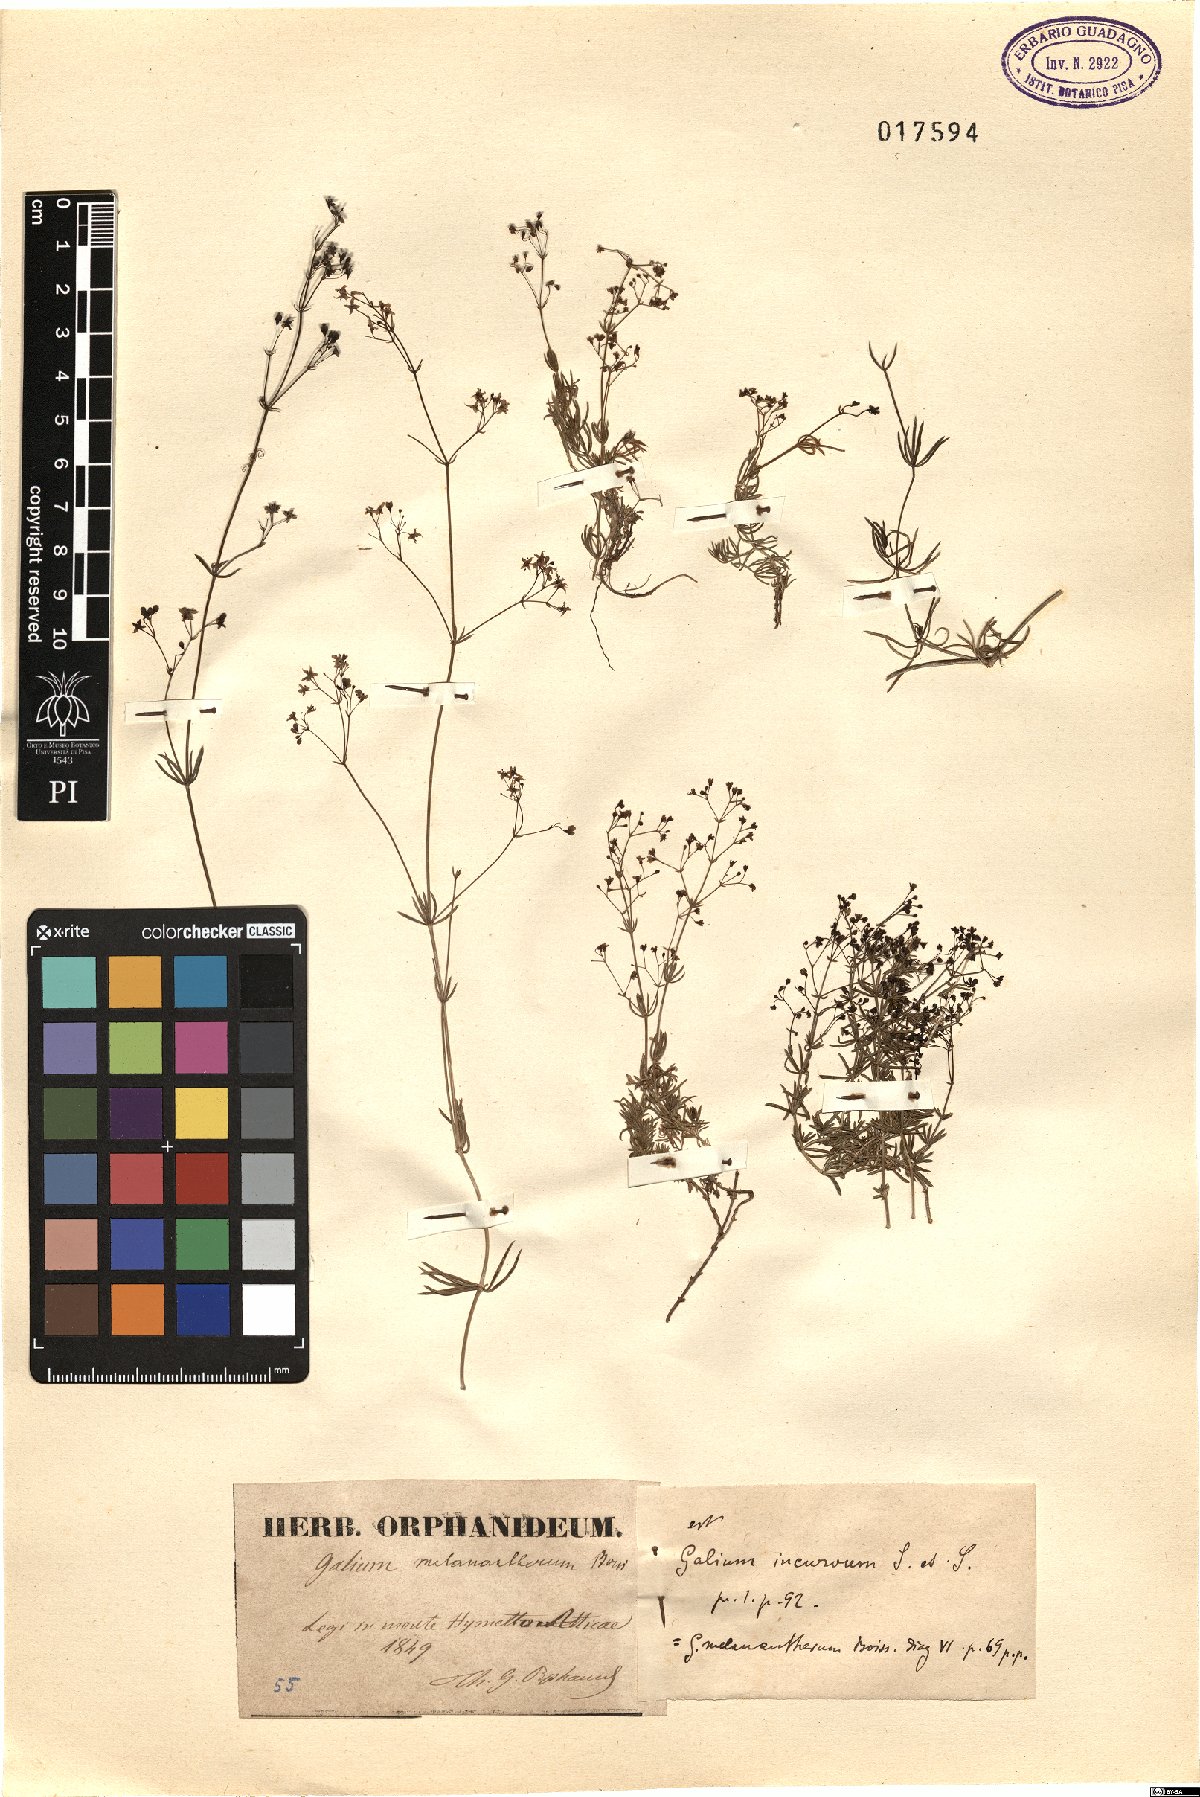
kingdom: Plantae
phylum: Tracheophyta
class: Magnoliopsida
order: Gentianales
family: Rubiaceae
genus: Galium
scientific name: Galium melanantherum
